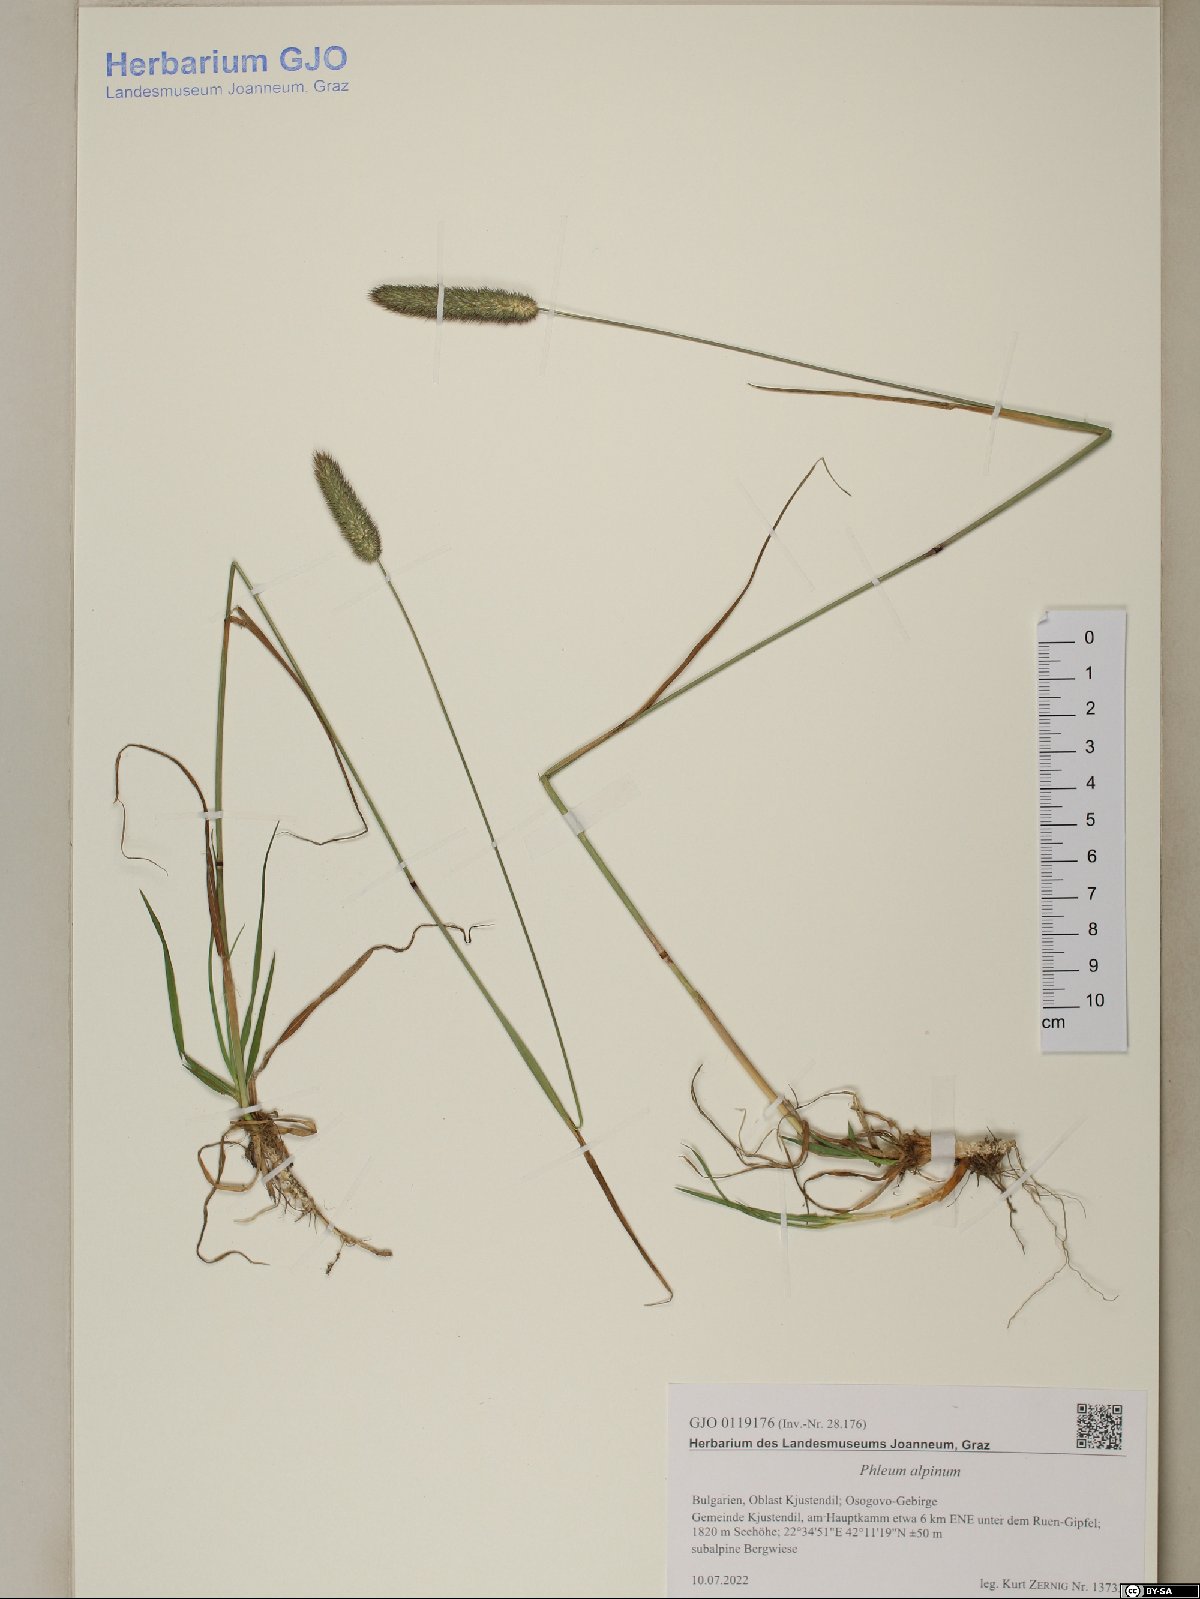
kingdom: Plantae
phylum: Tracheophyta
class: Liliopsida
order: Poales
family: Poaceae
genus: Phleum
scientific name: Phleum alpinum
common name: Alpine cat's-tail
